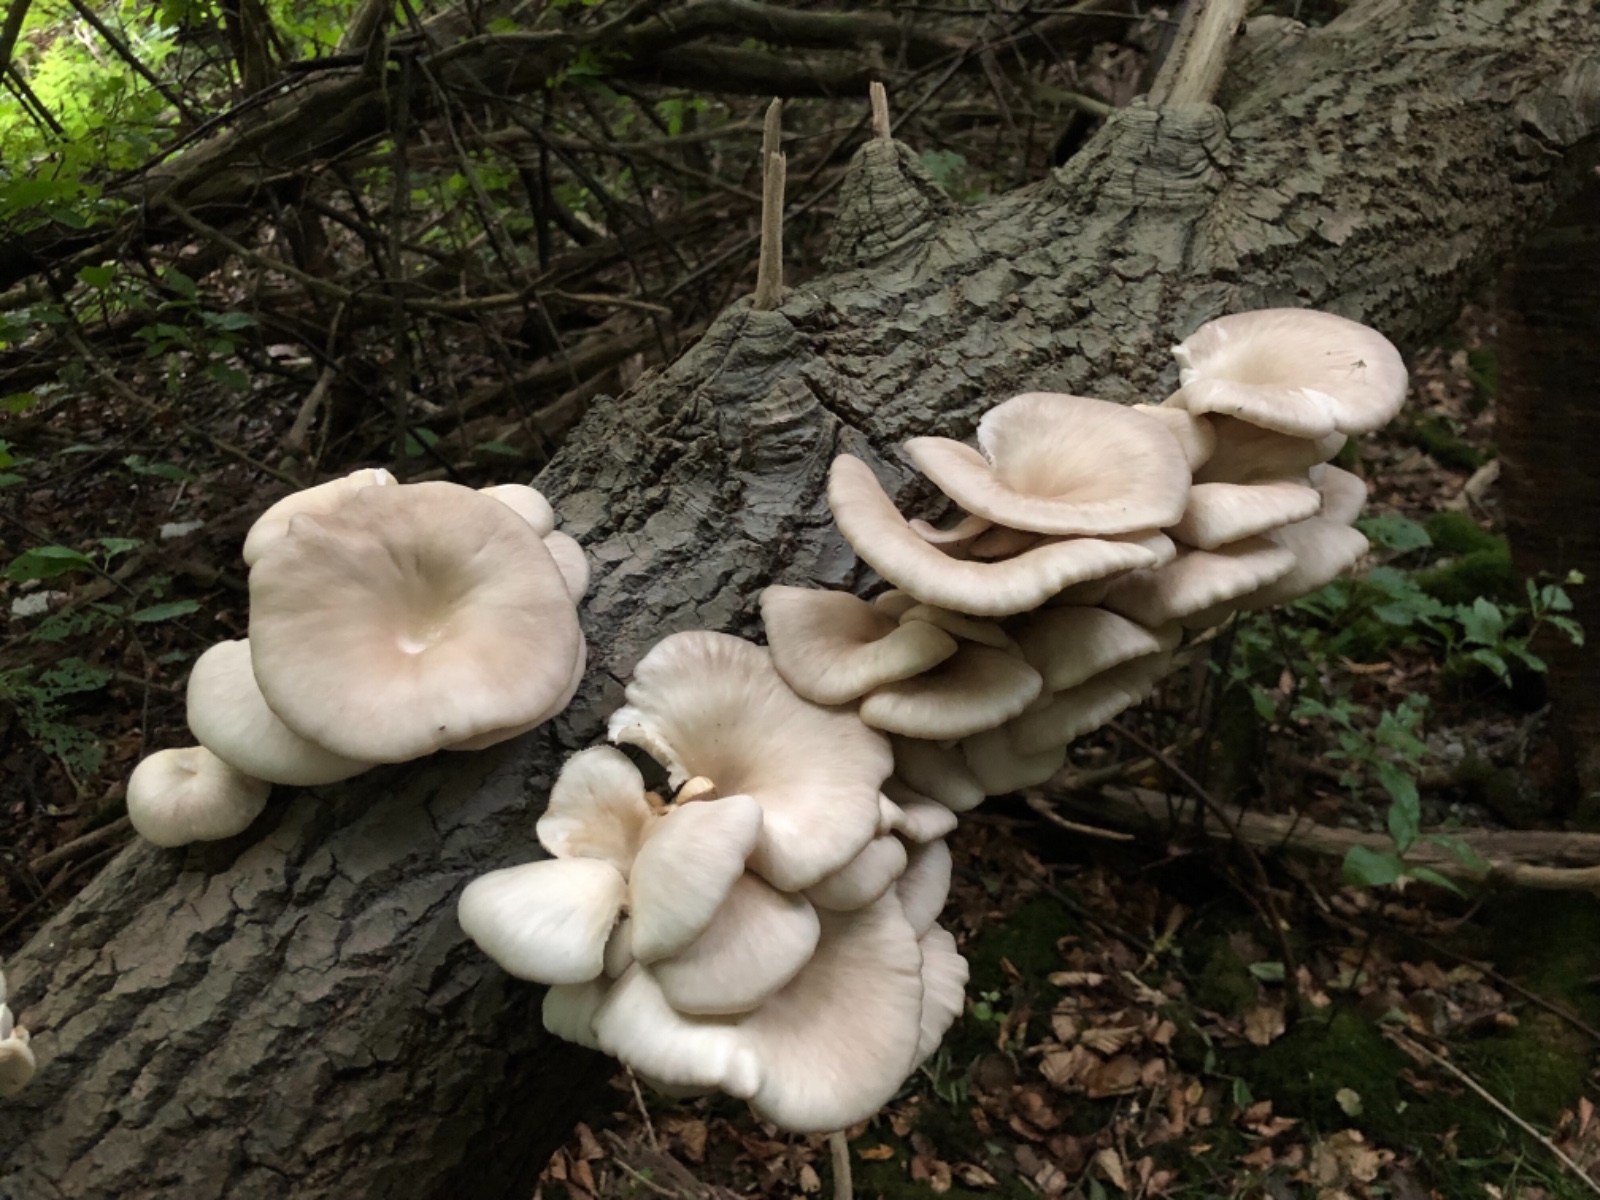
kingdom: Fungi
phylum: Basidiomycota
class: Agaricomycetes
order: Agaricales
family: Pleurotaceae
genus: Pleurotus
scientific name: Pleurotus pulmonarius
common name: sommer-østershat
